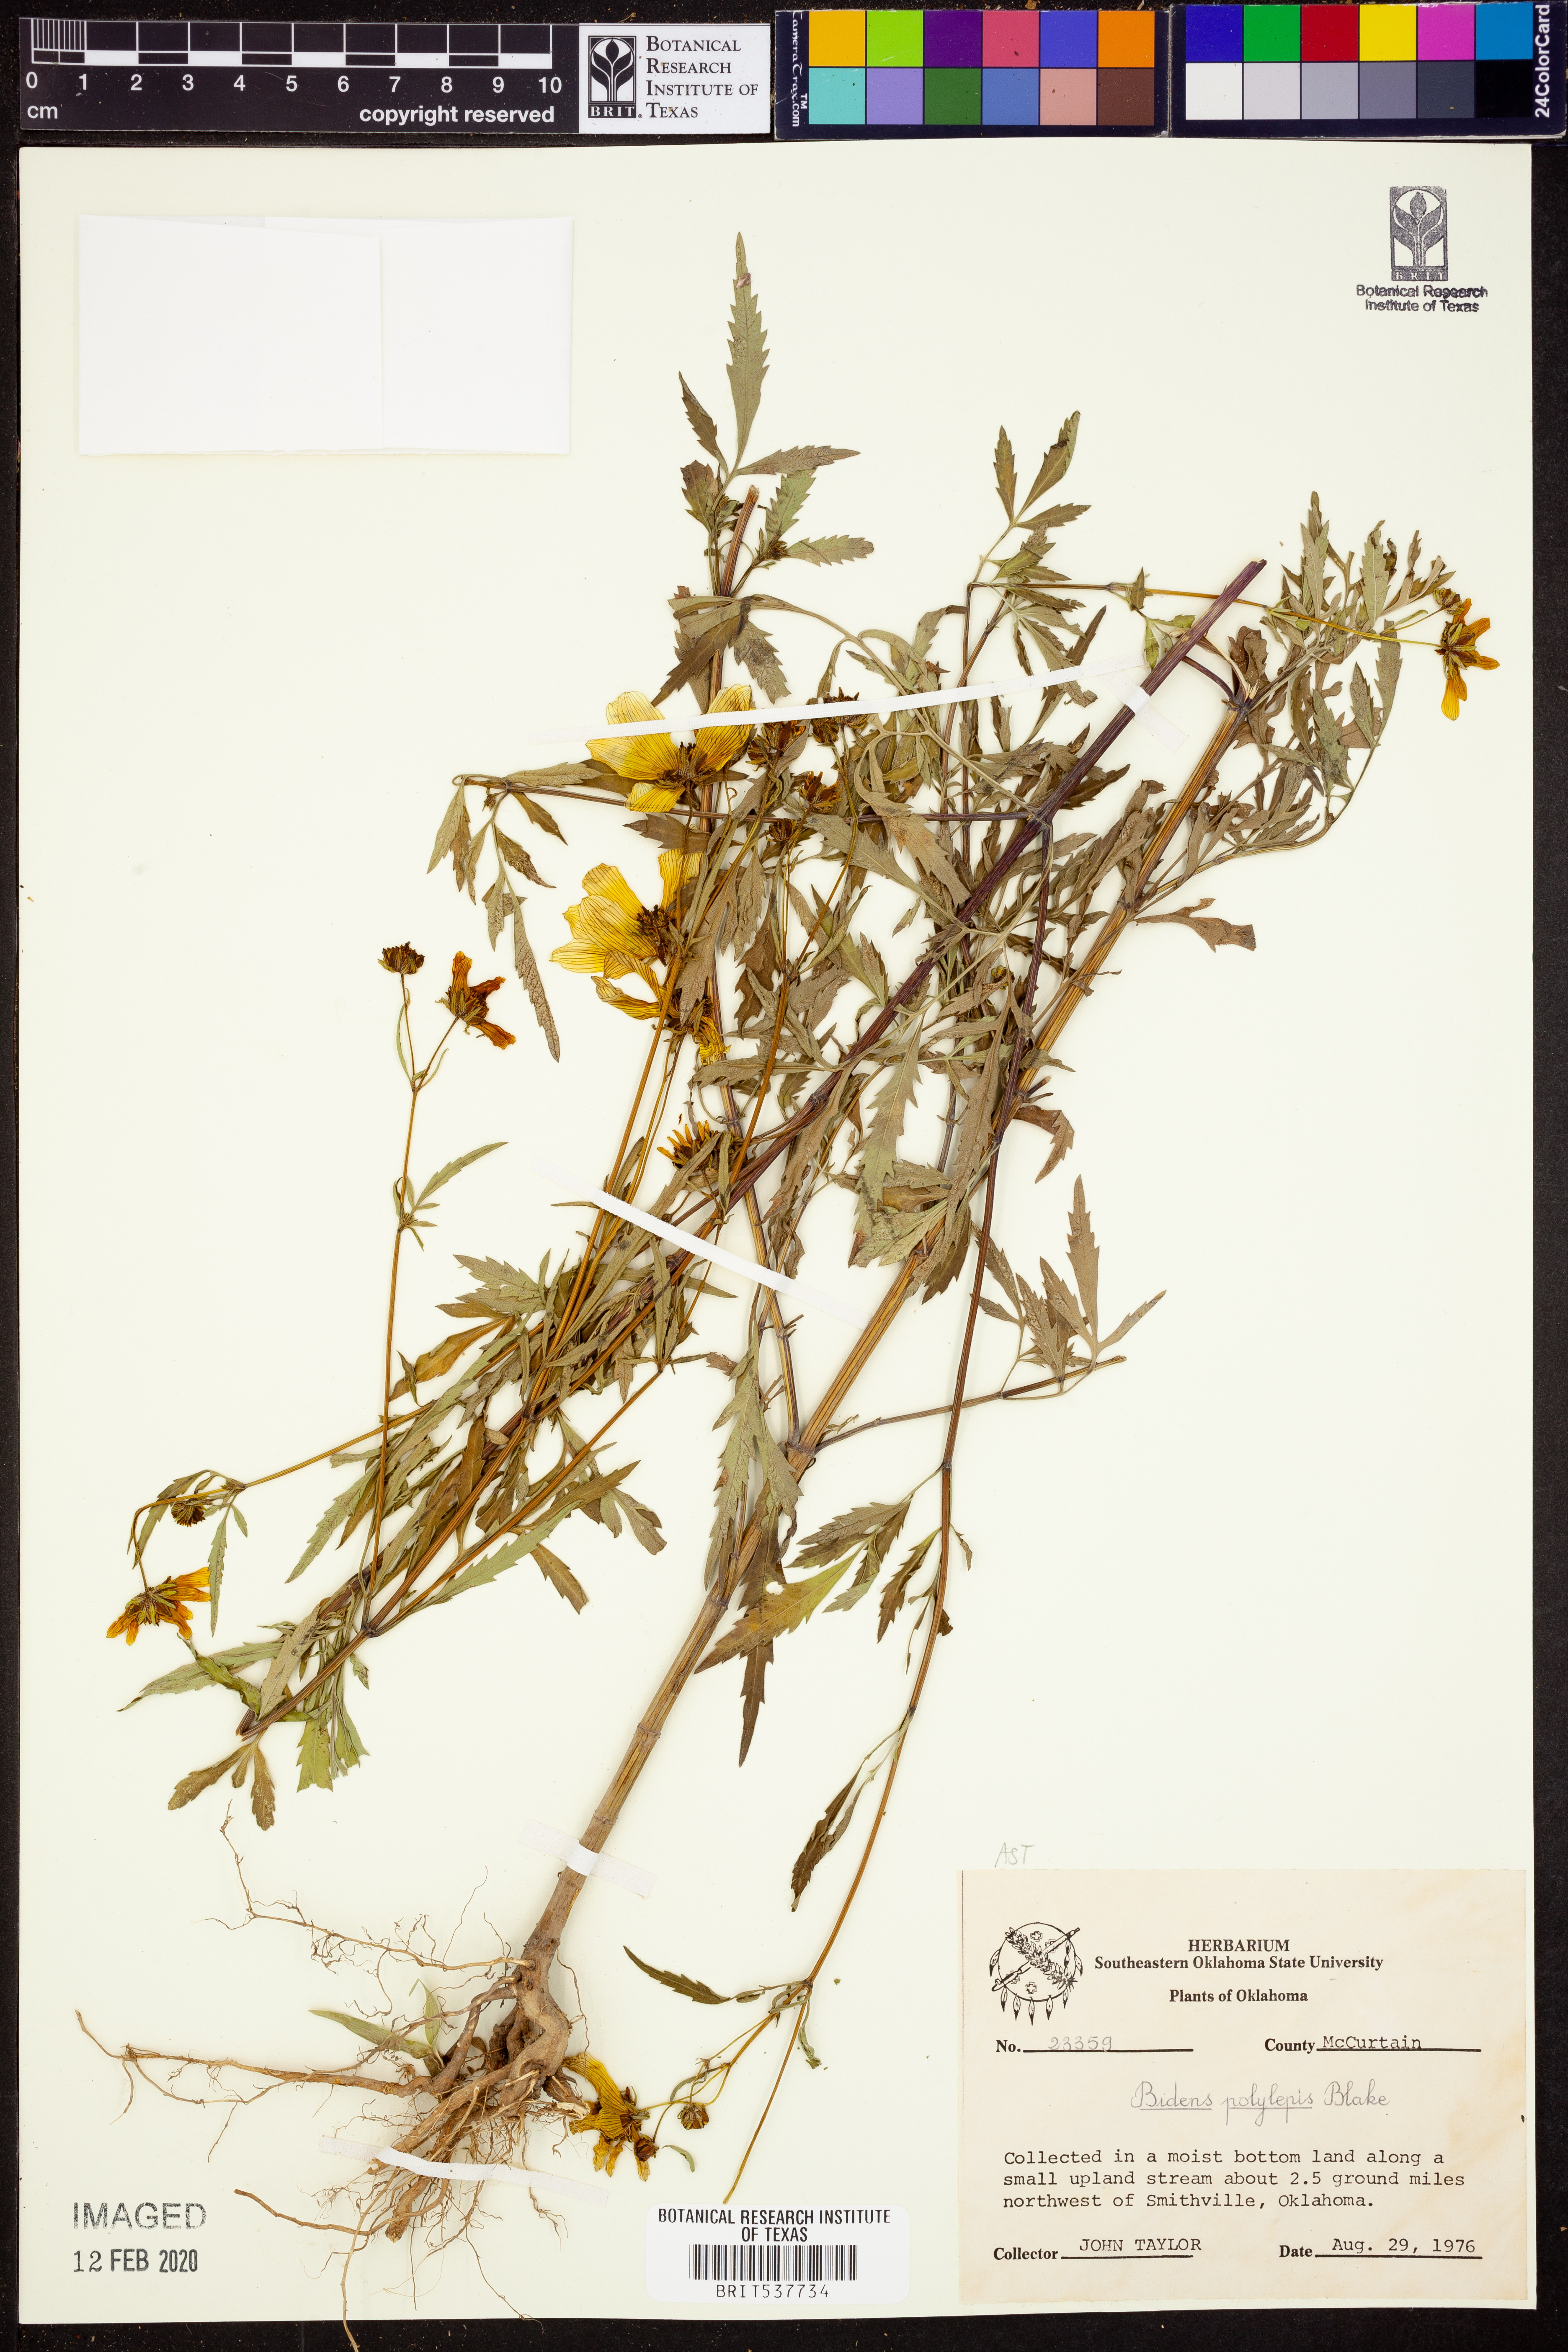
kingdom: Plantae
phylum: Tracheophyta
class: Magnoliopsida
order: Asterales
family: Asteraceae
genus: Bidens
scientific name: Bidens polylepis
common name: Awnless beggarticks
